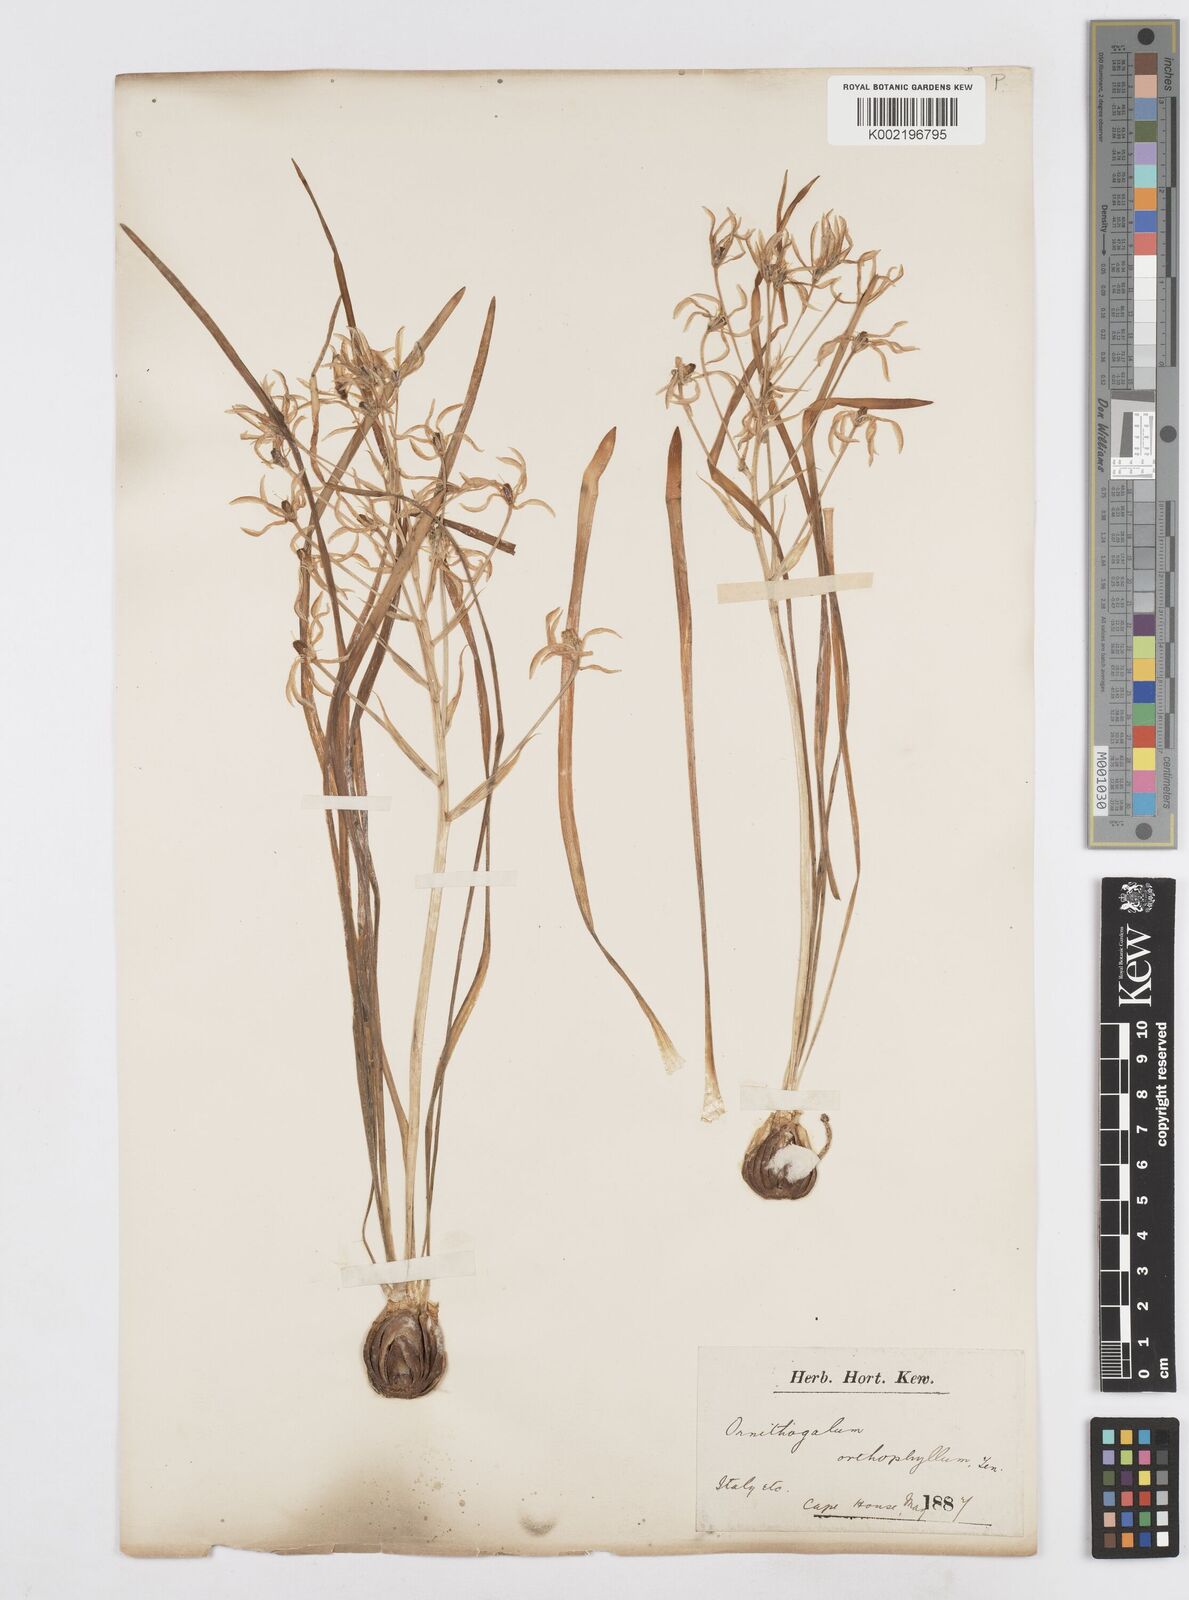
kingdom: Plantae
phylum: Tracheophyta
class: Liliopsida
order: Asparagales
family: Asparagaceae
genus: Ornithogalum
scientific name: Ornithogalum orthophyllum
